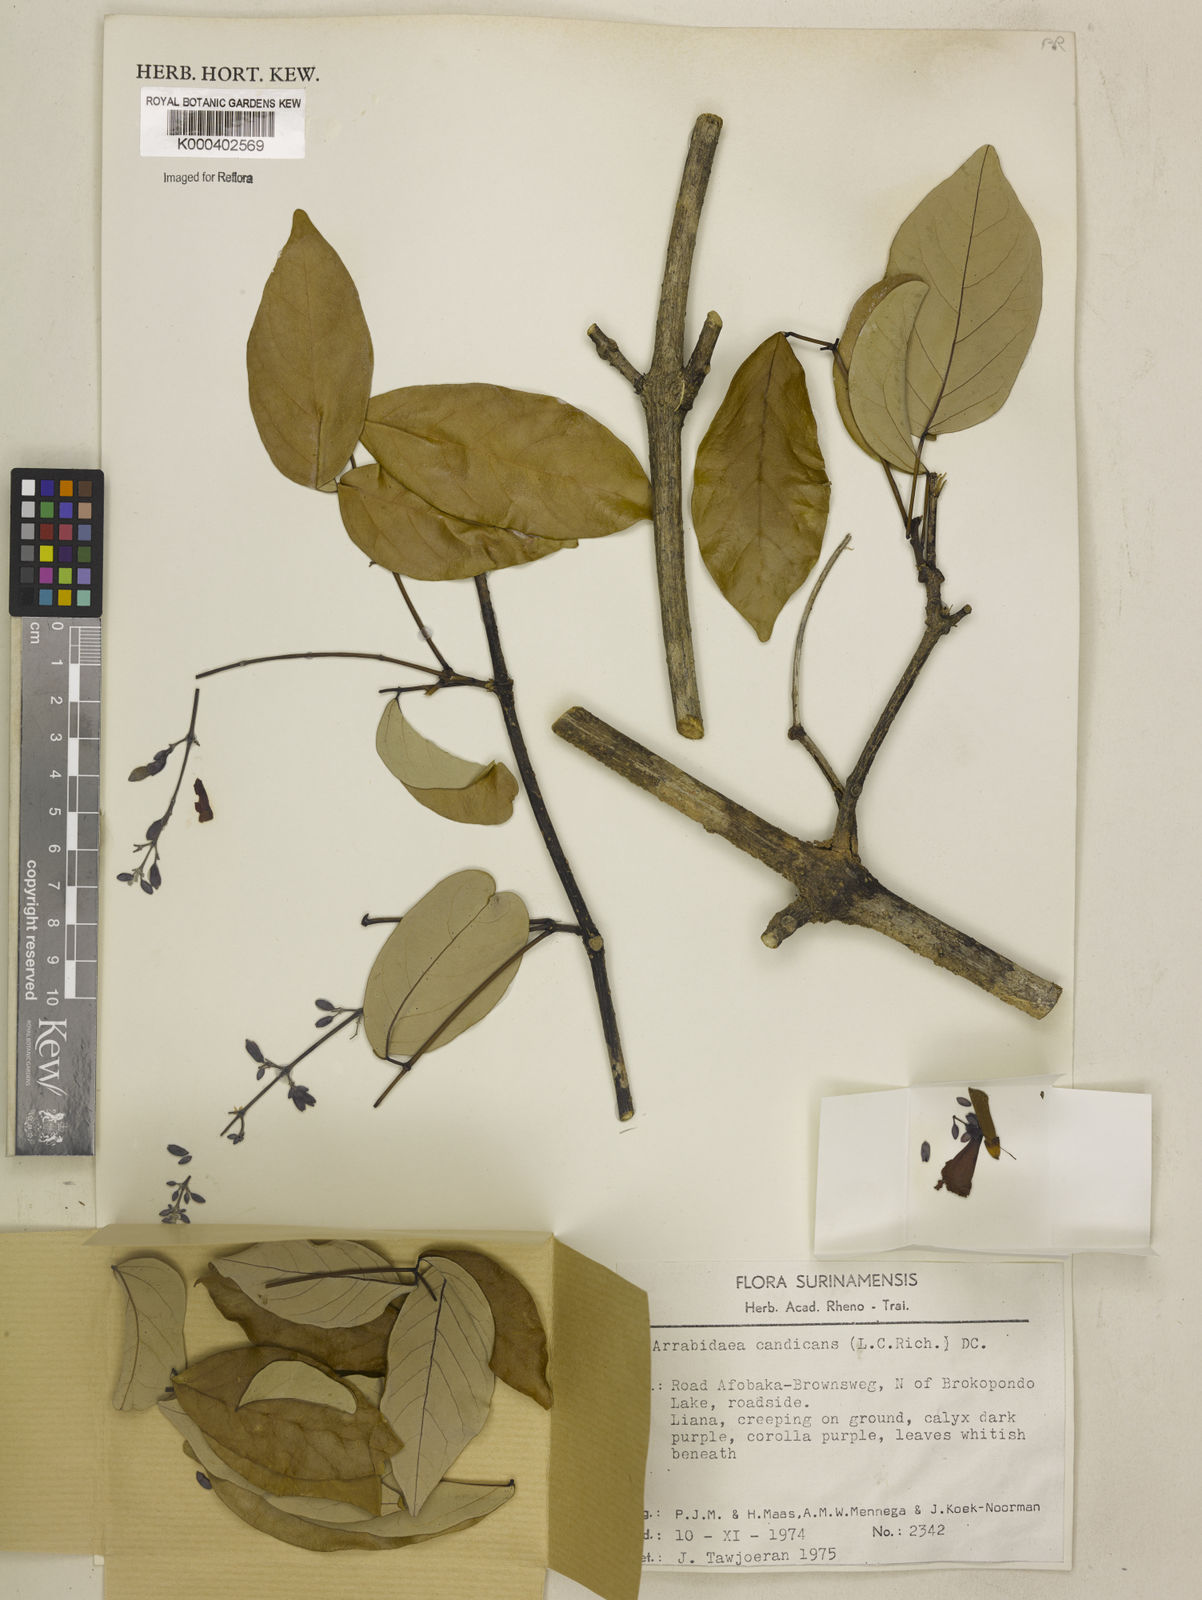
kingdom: Plantae
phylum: Tracheophyta
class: Magnoliopsida
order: Lamiales
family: Bignoniaceae
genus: Fridericia
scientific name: Fridericia candicans
